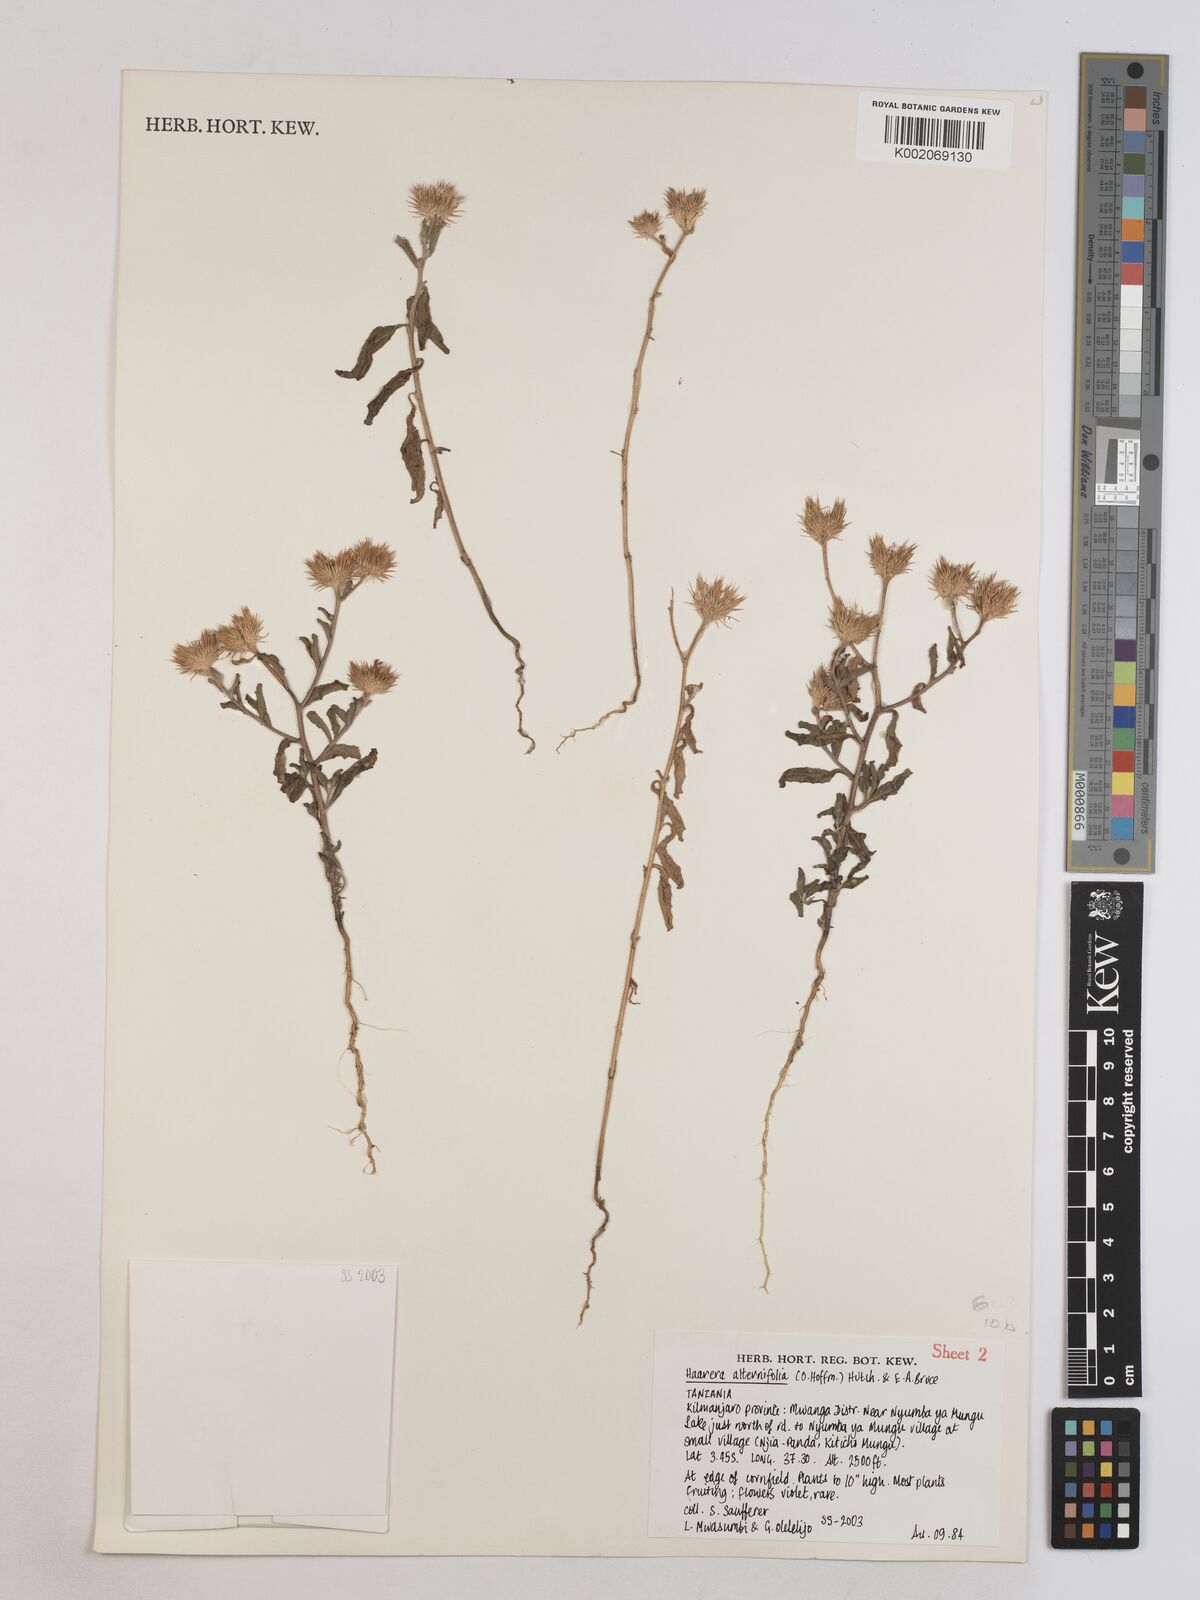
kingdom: Plantae
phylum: Tracheophyta
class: Magnoliopsida
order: Asterales
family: Asteraceae
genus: Erlangea
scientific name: Erlangea alternifolia
